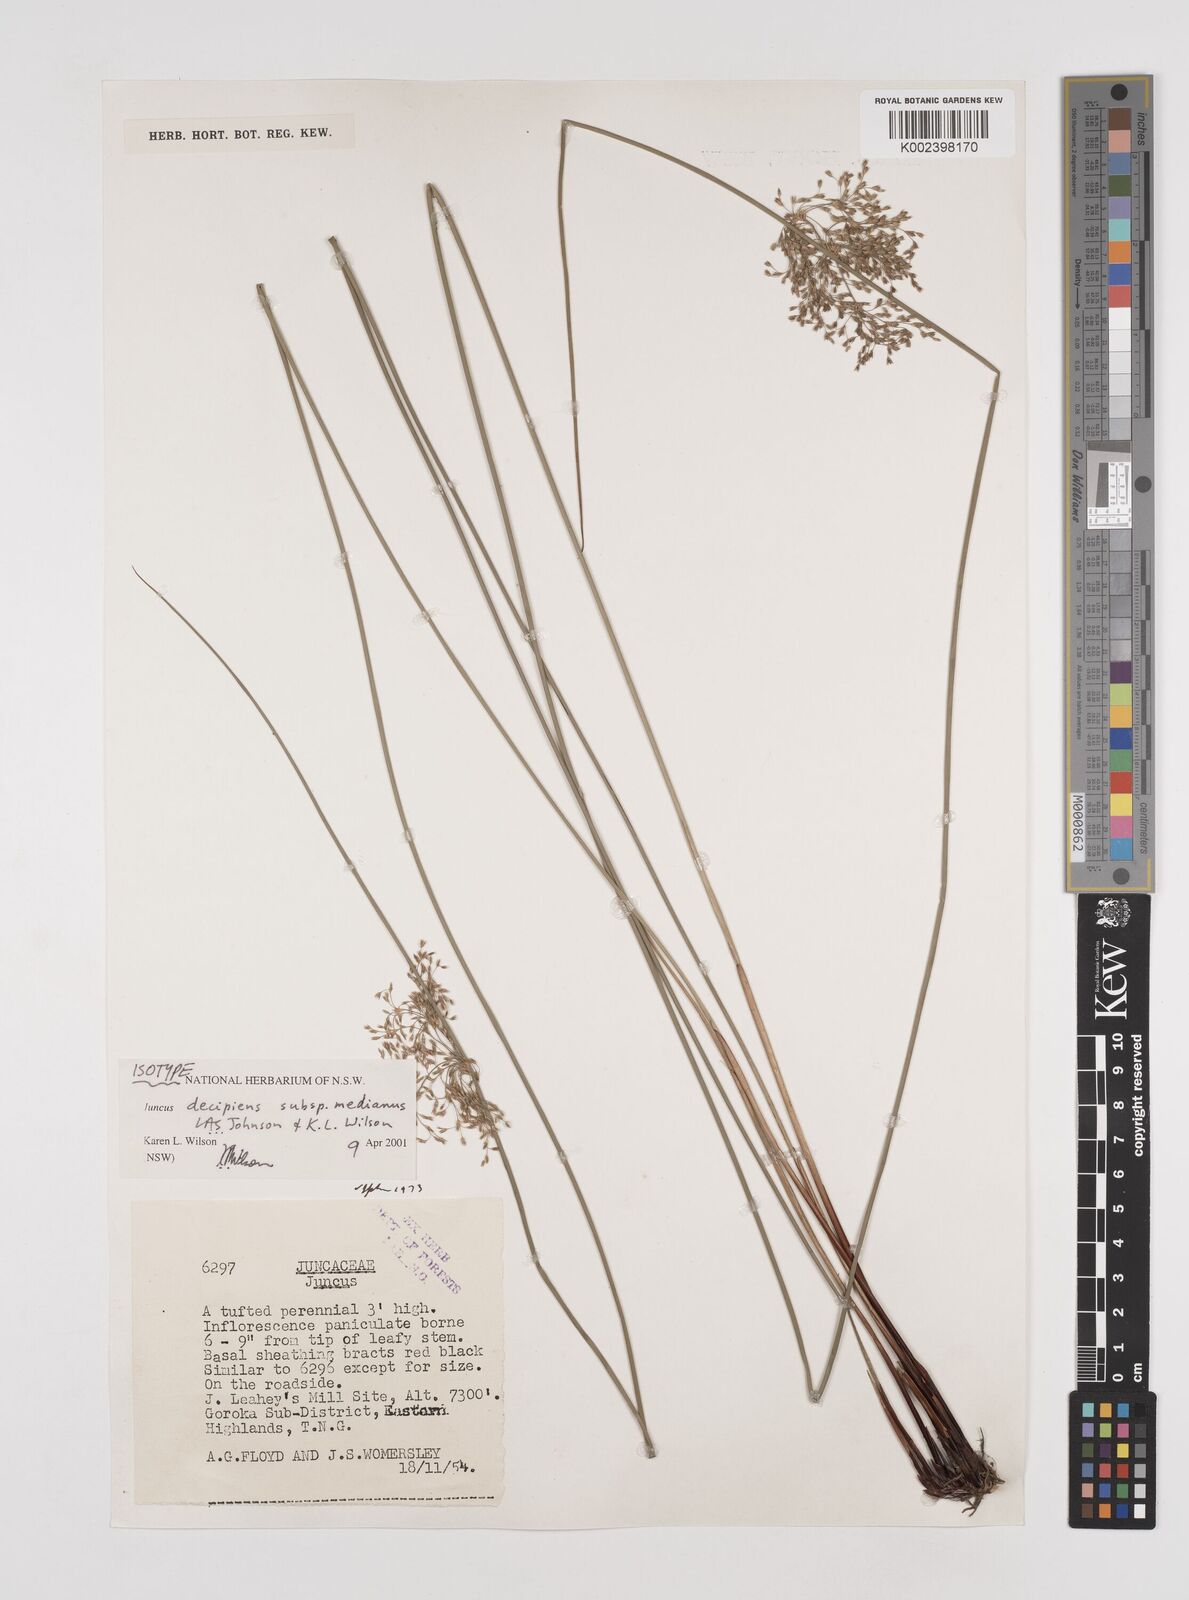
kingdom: Plantae
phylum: Tracheophyta
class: Liliopsida
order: Poales
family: Juncaceae
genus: Juncus
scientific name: Juncus effusus
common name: Soft rush
